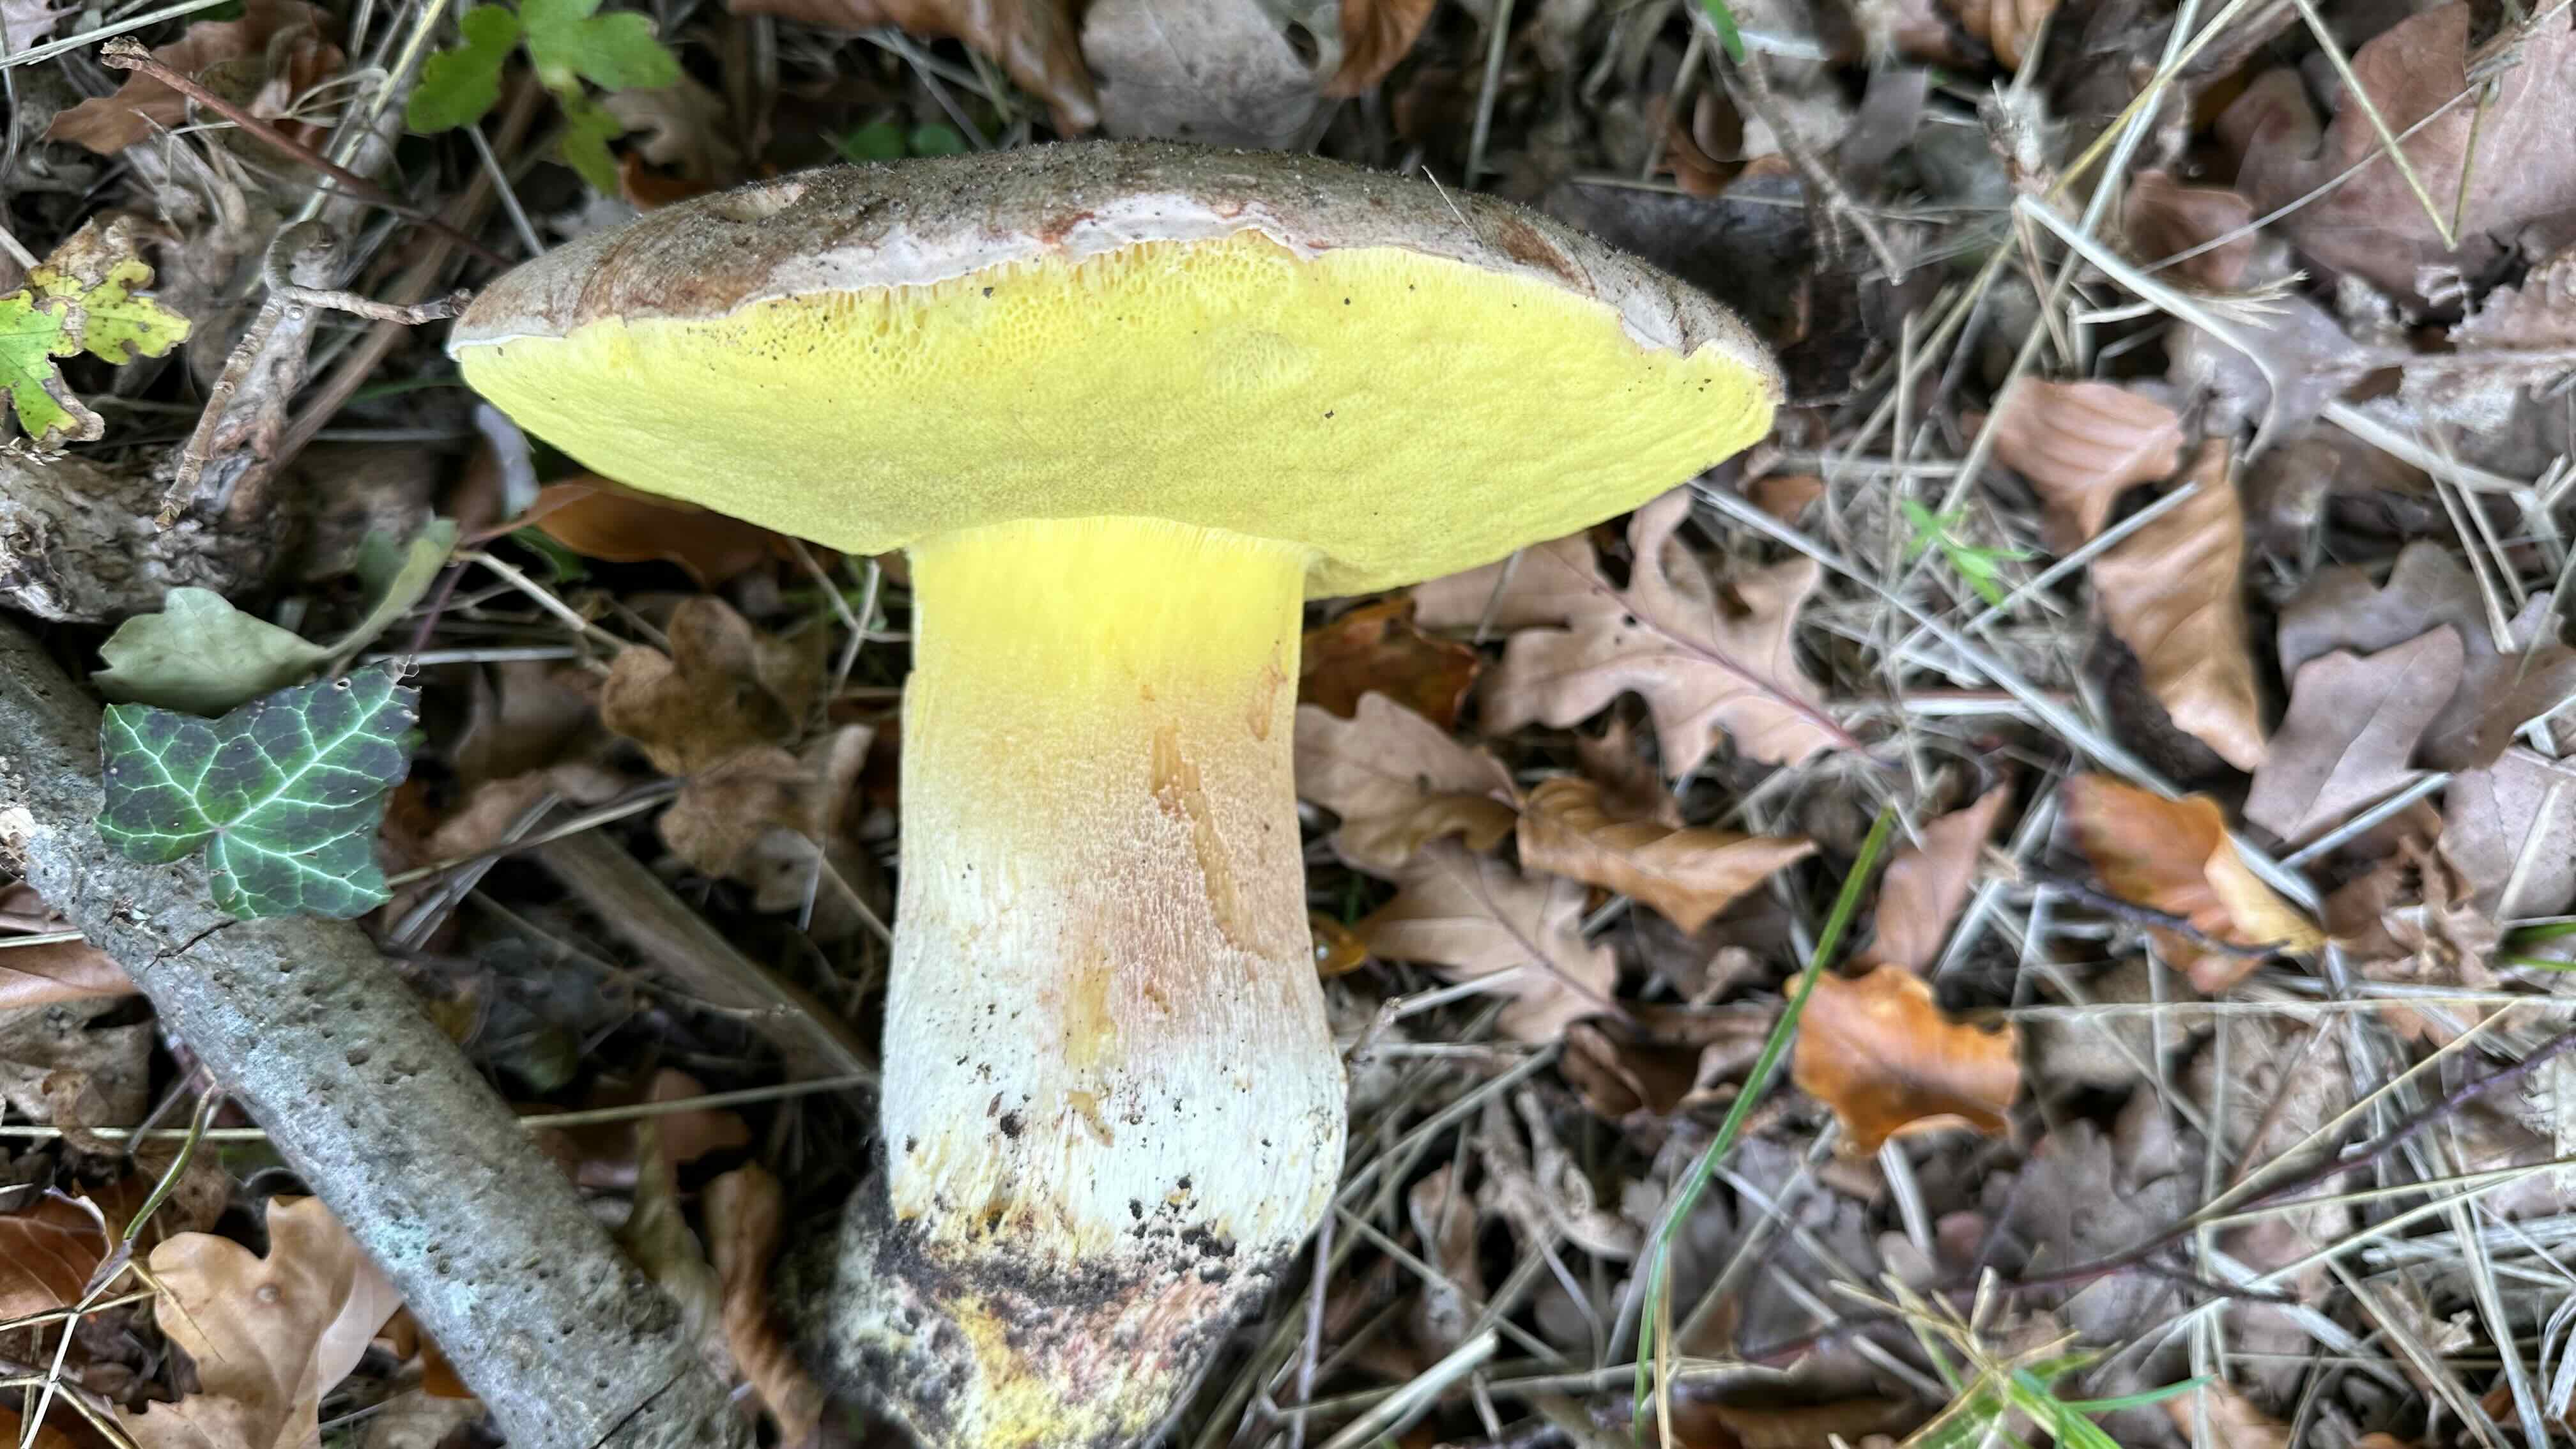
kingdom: Fungi
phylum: Basidiomycota
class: Agaricomycetes
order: Boletales
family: Boletaceae
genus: Hemileccinum
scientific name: Hemileccinum impolitum
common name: bleg rørhat
